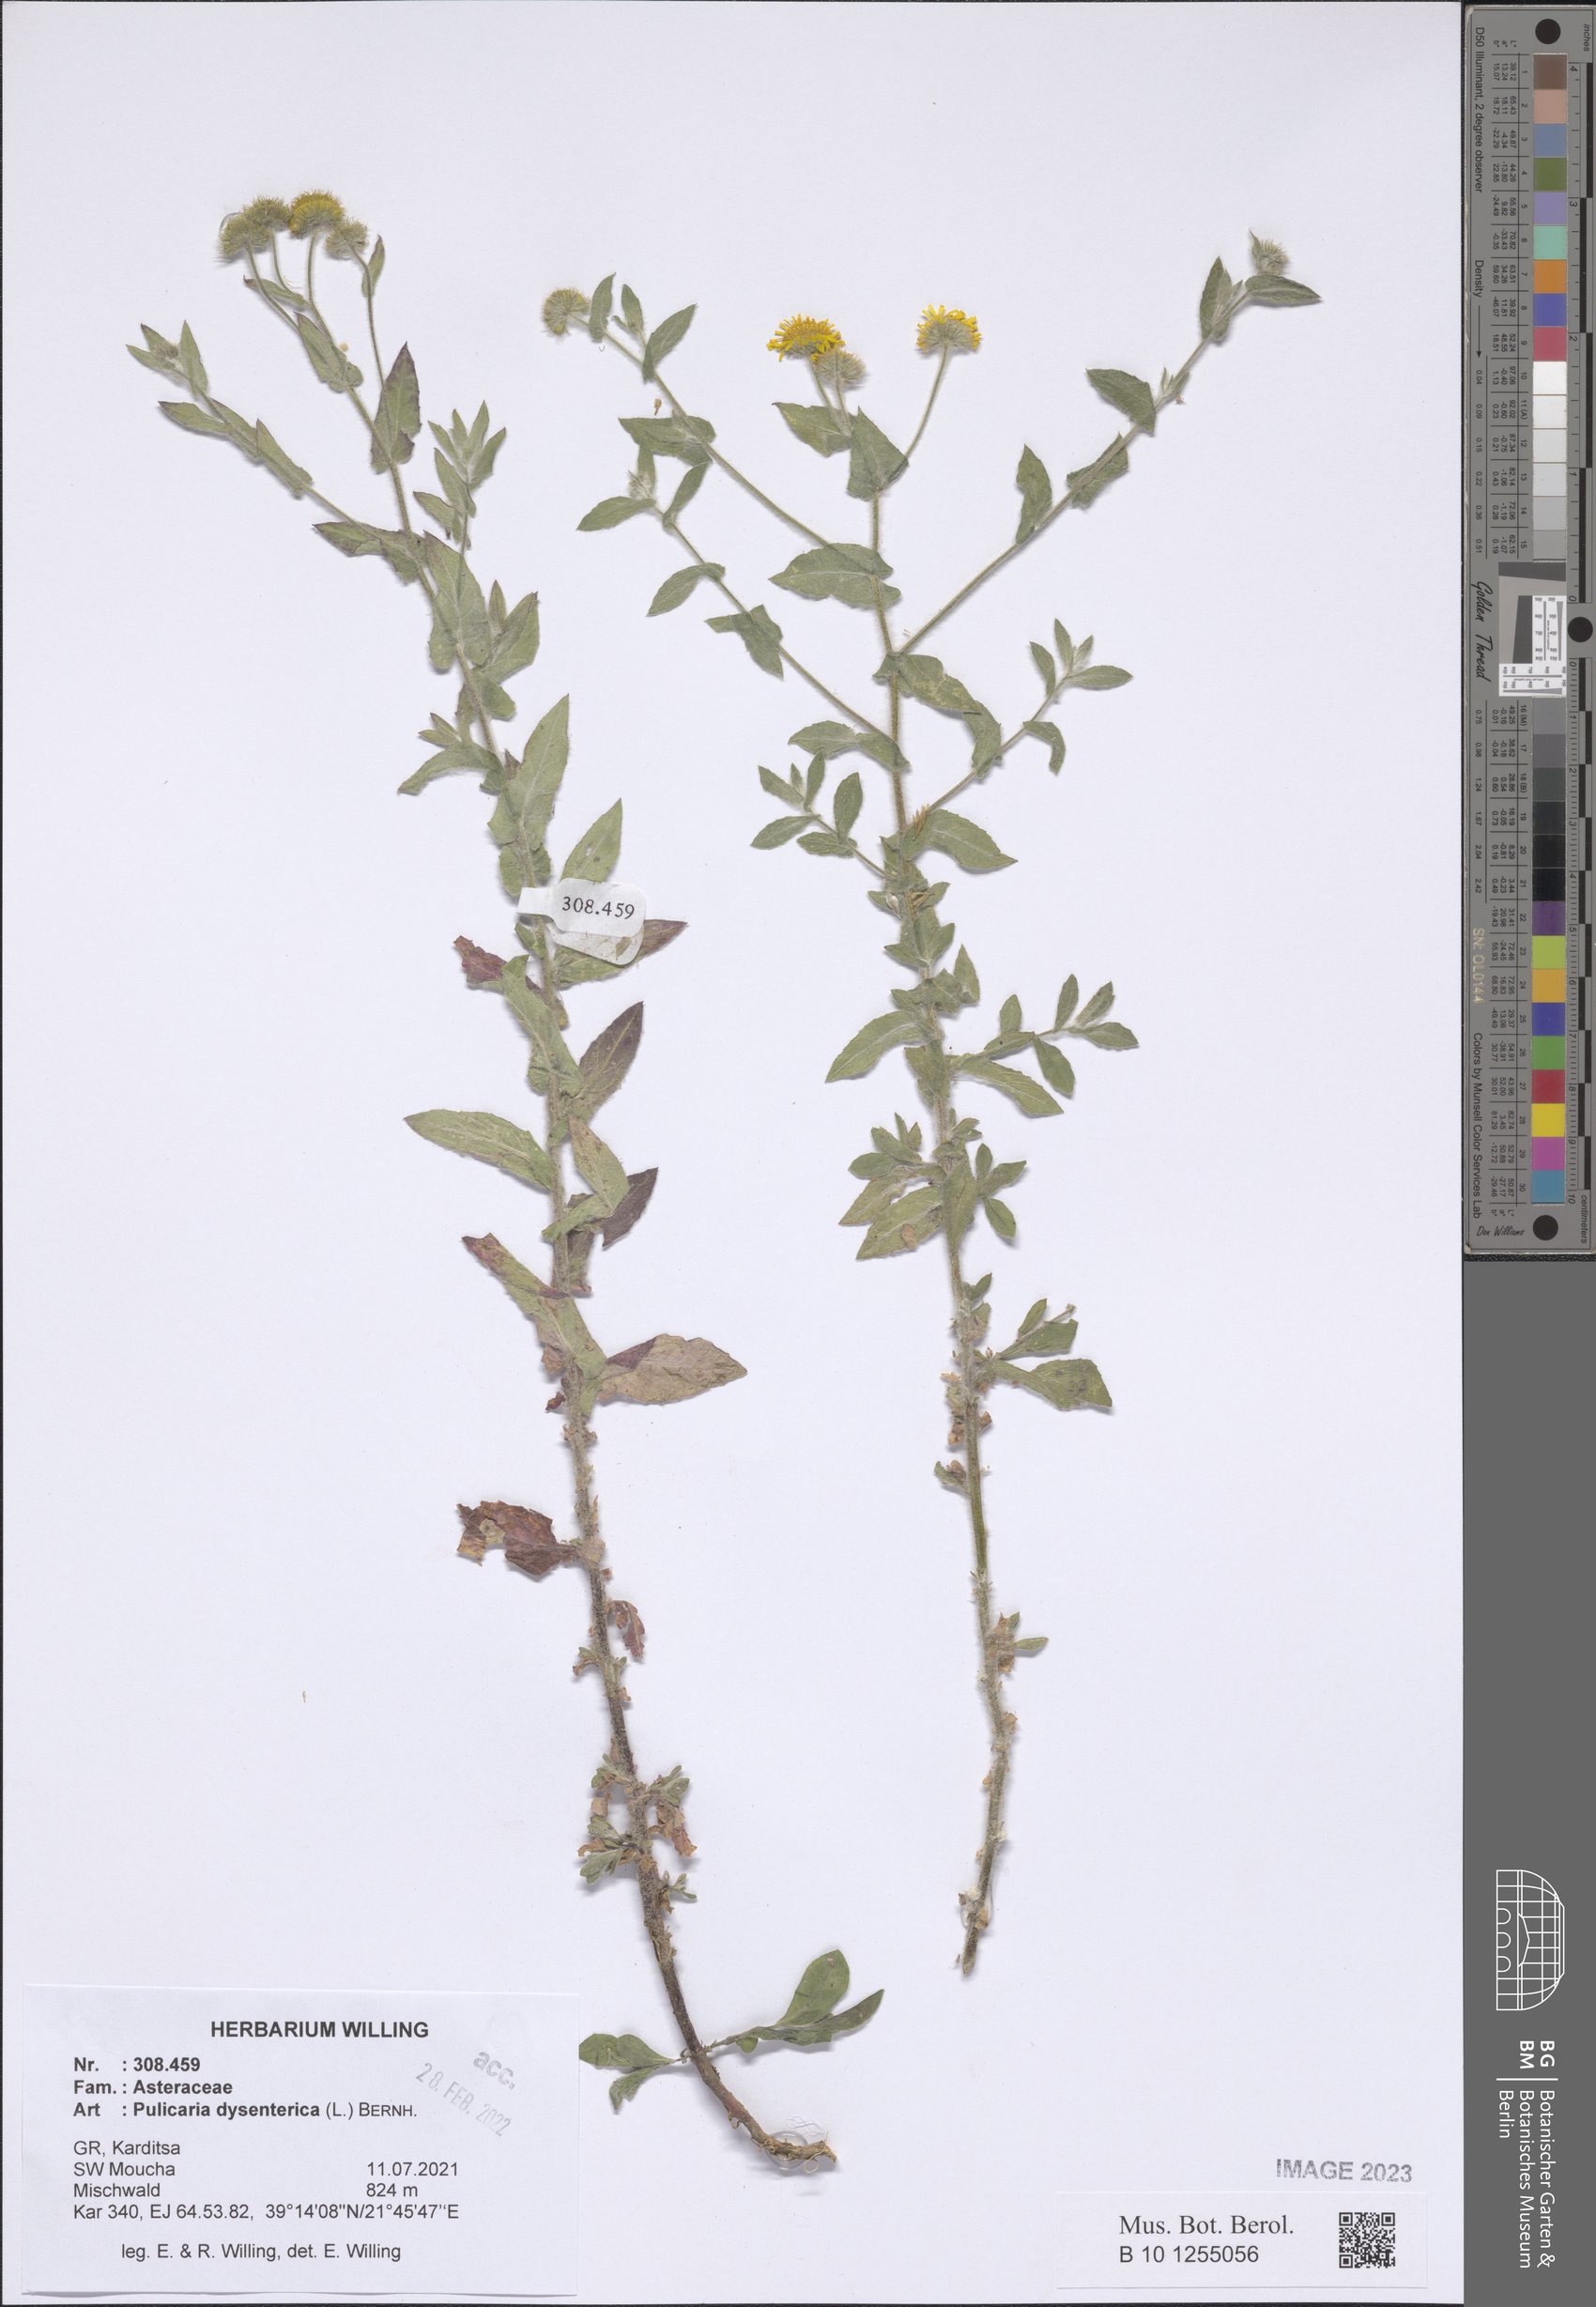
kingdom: Plantae
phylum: Tracheophyta
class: Magnoliopsida
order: Asterales
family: Asteraceae
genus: Pulicaria
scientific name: Pulicaria dysenterica
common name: Common fleabane
